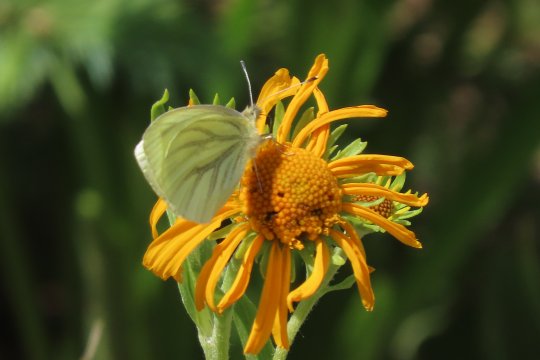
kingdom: Animalia
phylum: Arthropoda
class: Insecta
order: Lepidoptera
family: Pieridae
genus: Pieris
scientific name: Pieris marginalis
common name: Margined White
